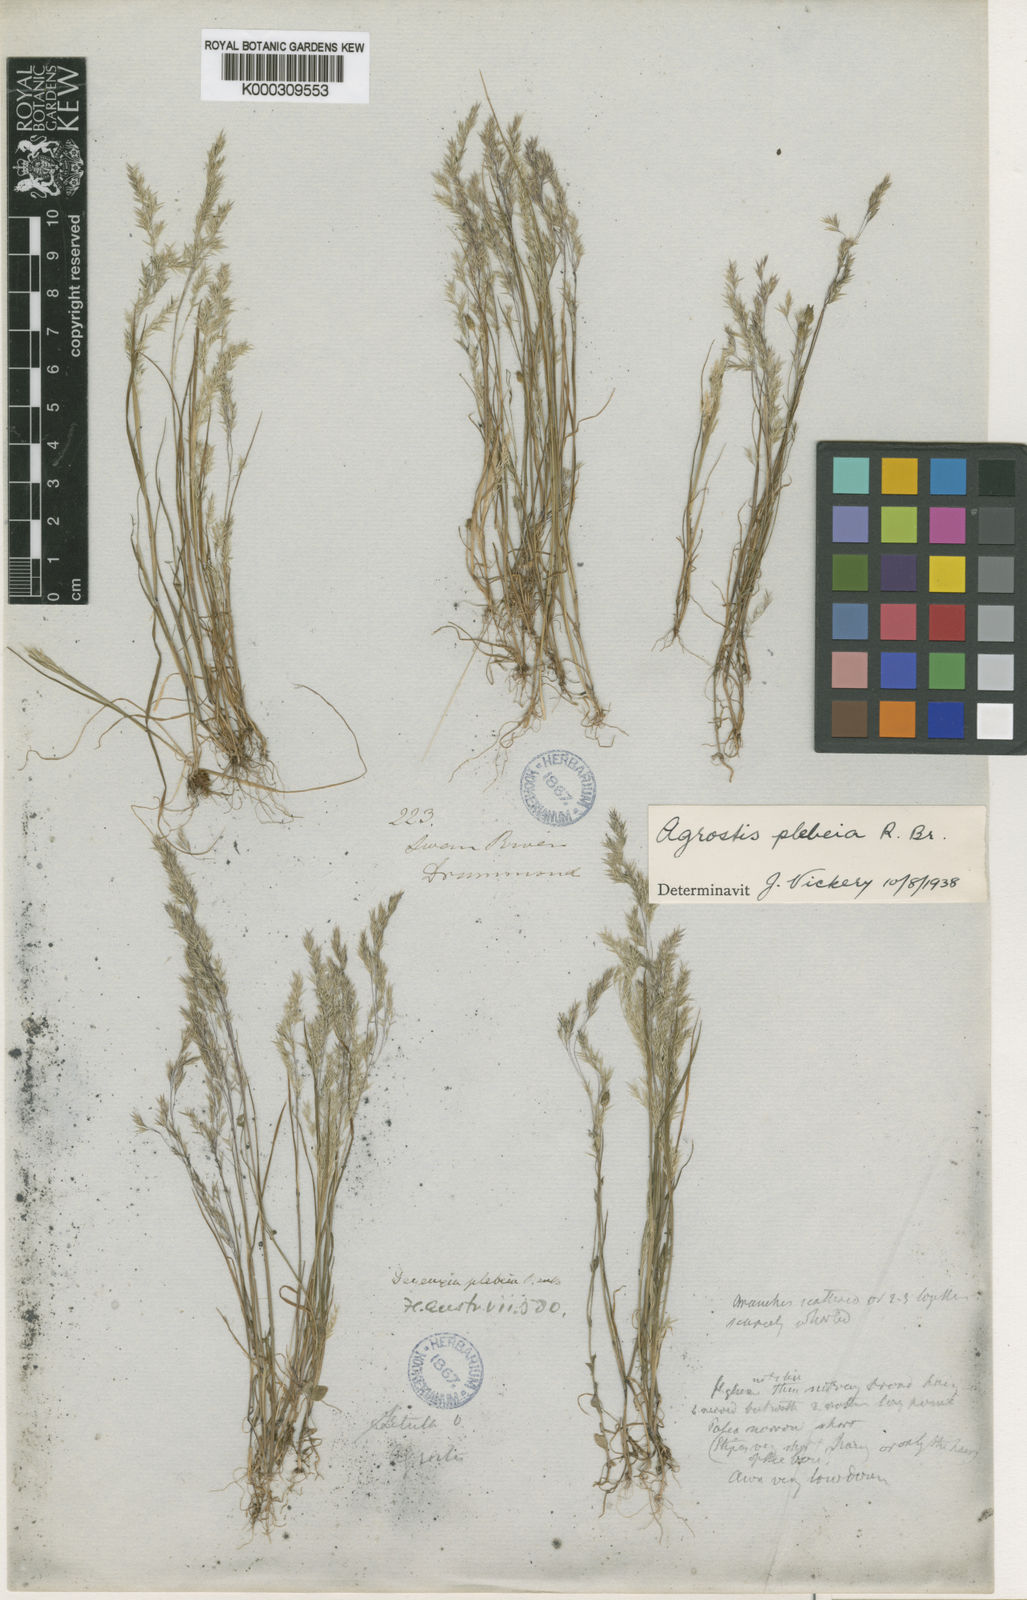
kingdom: Plantae
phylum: Tracheophyta
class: Liliopsida
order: Poales
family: Poaceae
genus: Lachnagrostis
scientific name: Lachnagrostis plebeia
